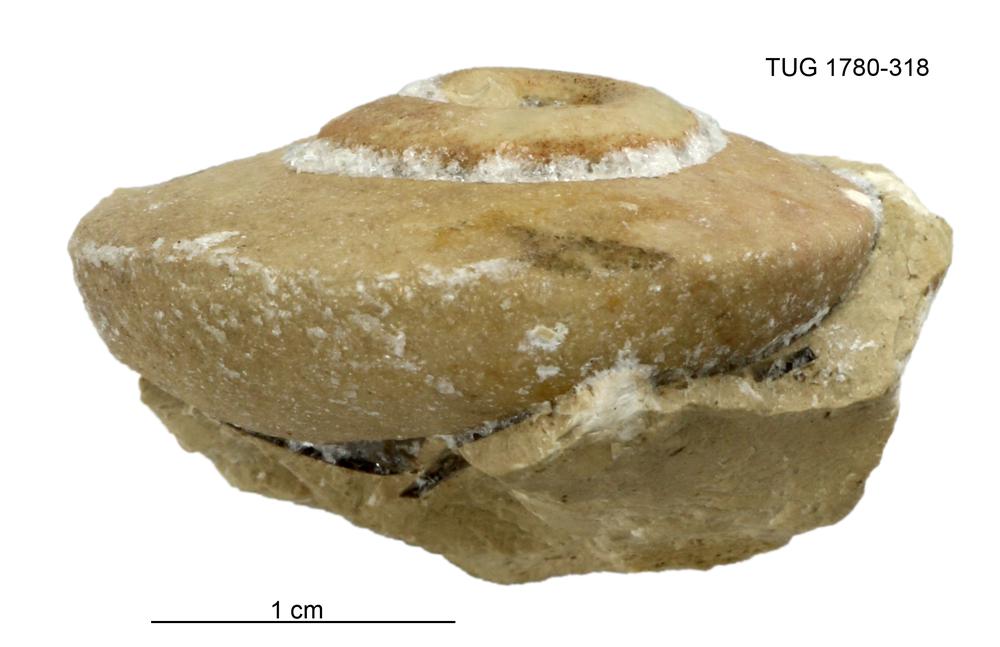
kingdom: Animalia
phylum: Mollusca
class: Gastropoda
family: Lesueurillidae
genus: Pararaphistoma
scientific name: Pararaphistoma Raphistoma suturale
